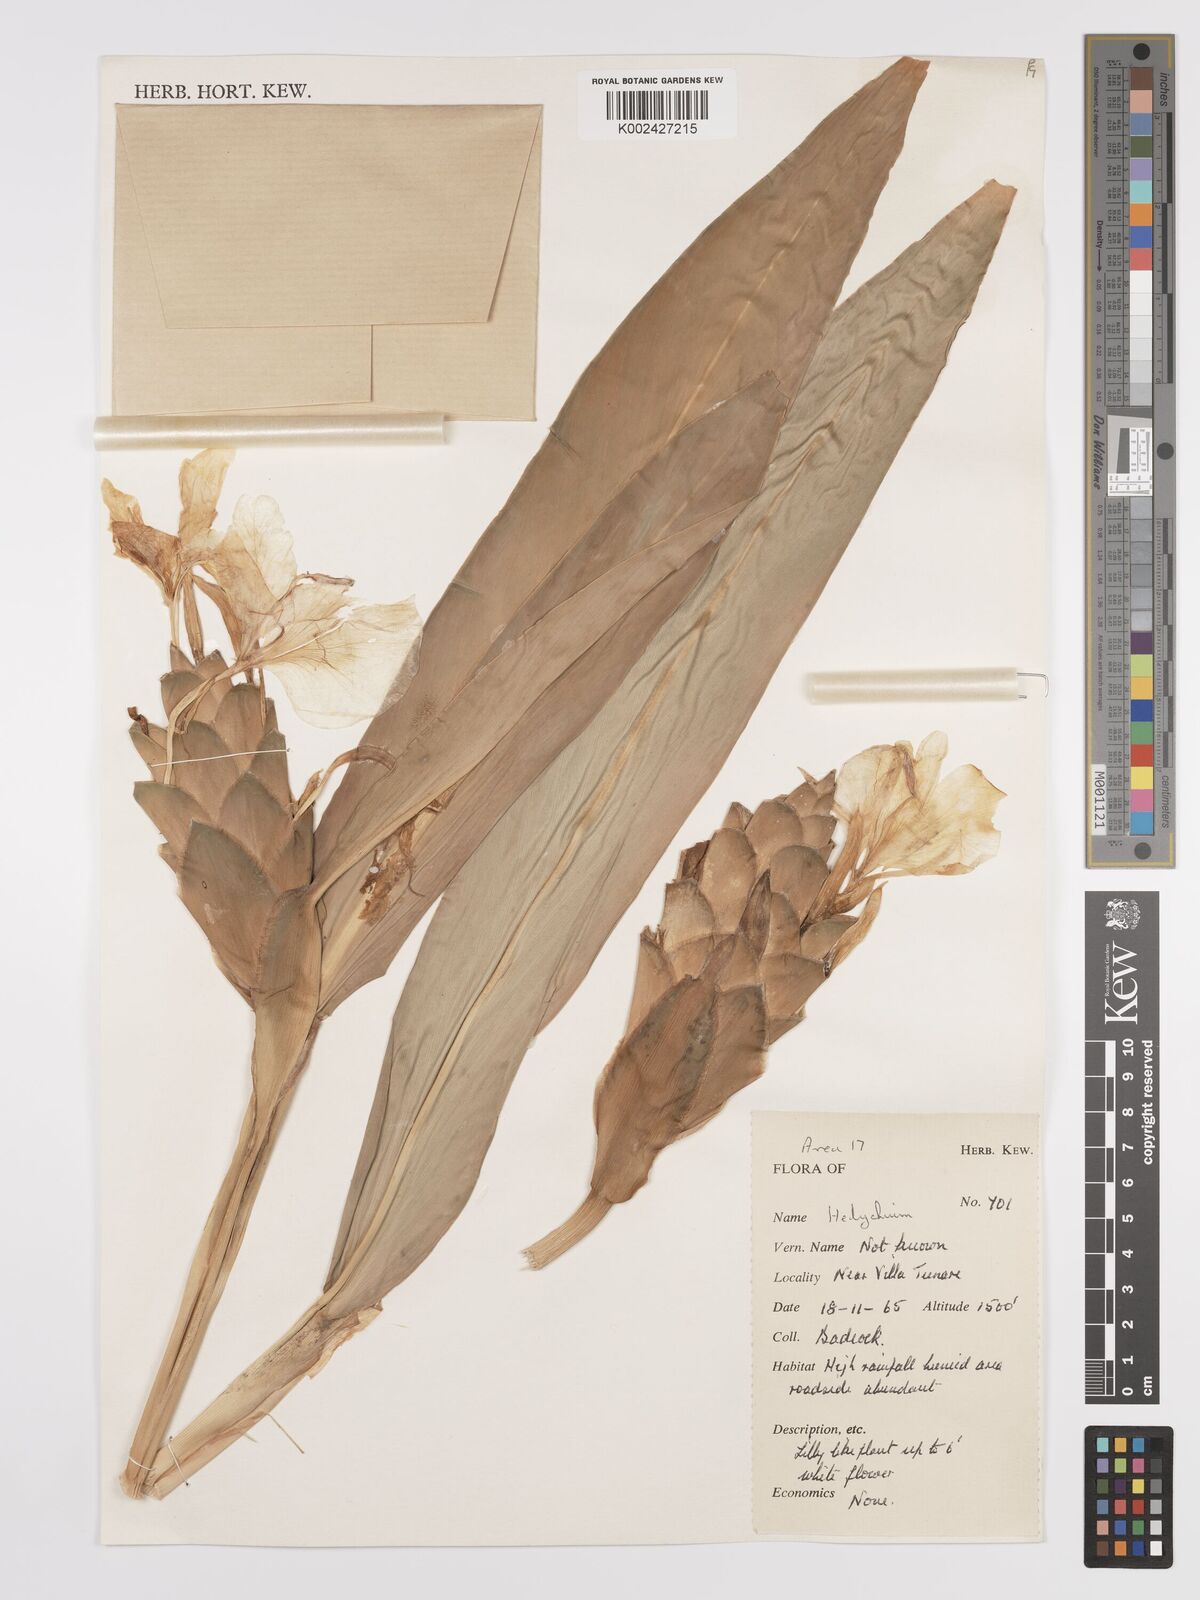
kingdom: Plantae
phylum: Tracheophyta
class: Liliopsida
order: Zingiberales
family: Zingiberaceae
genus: Hedychium
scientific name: Hedychium coronarium
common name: White garland-lily
